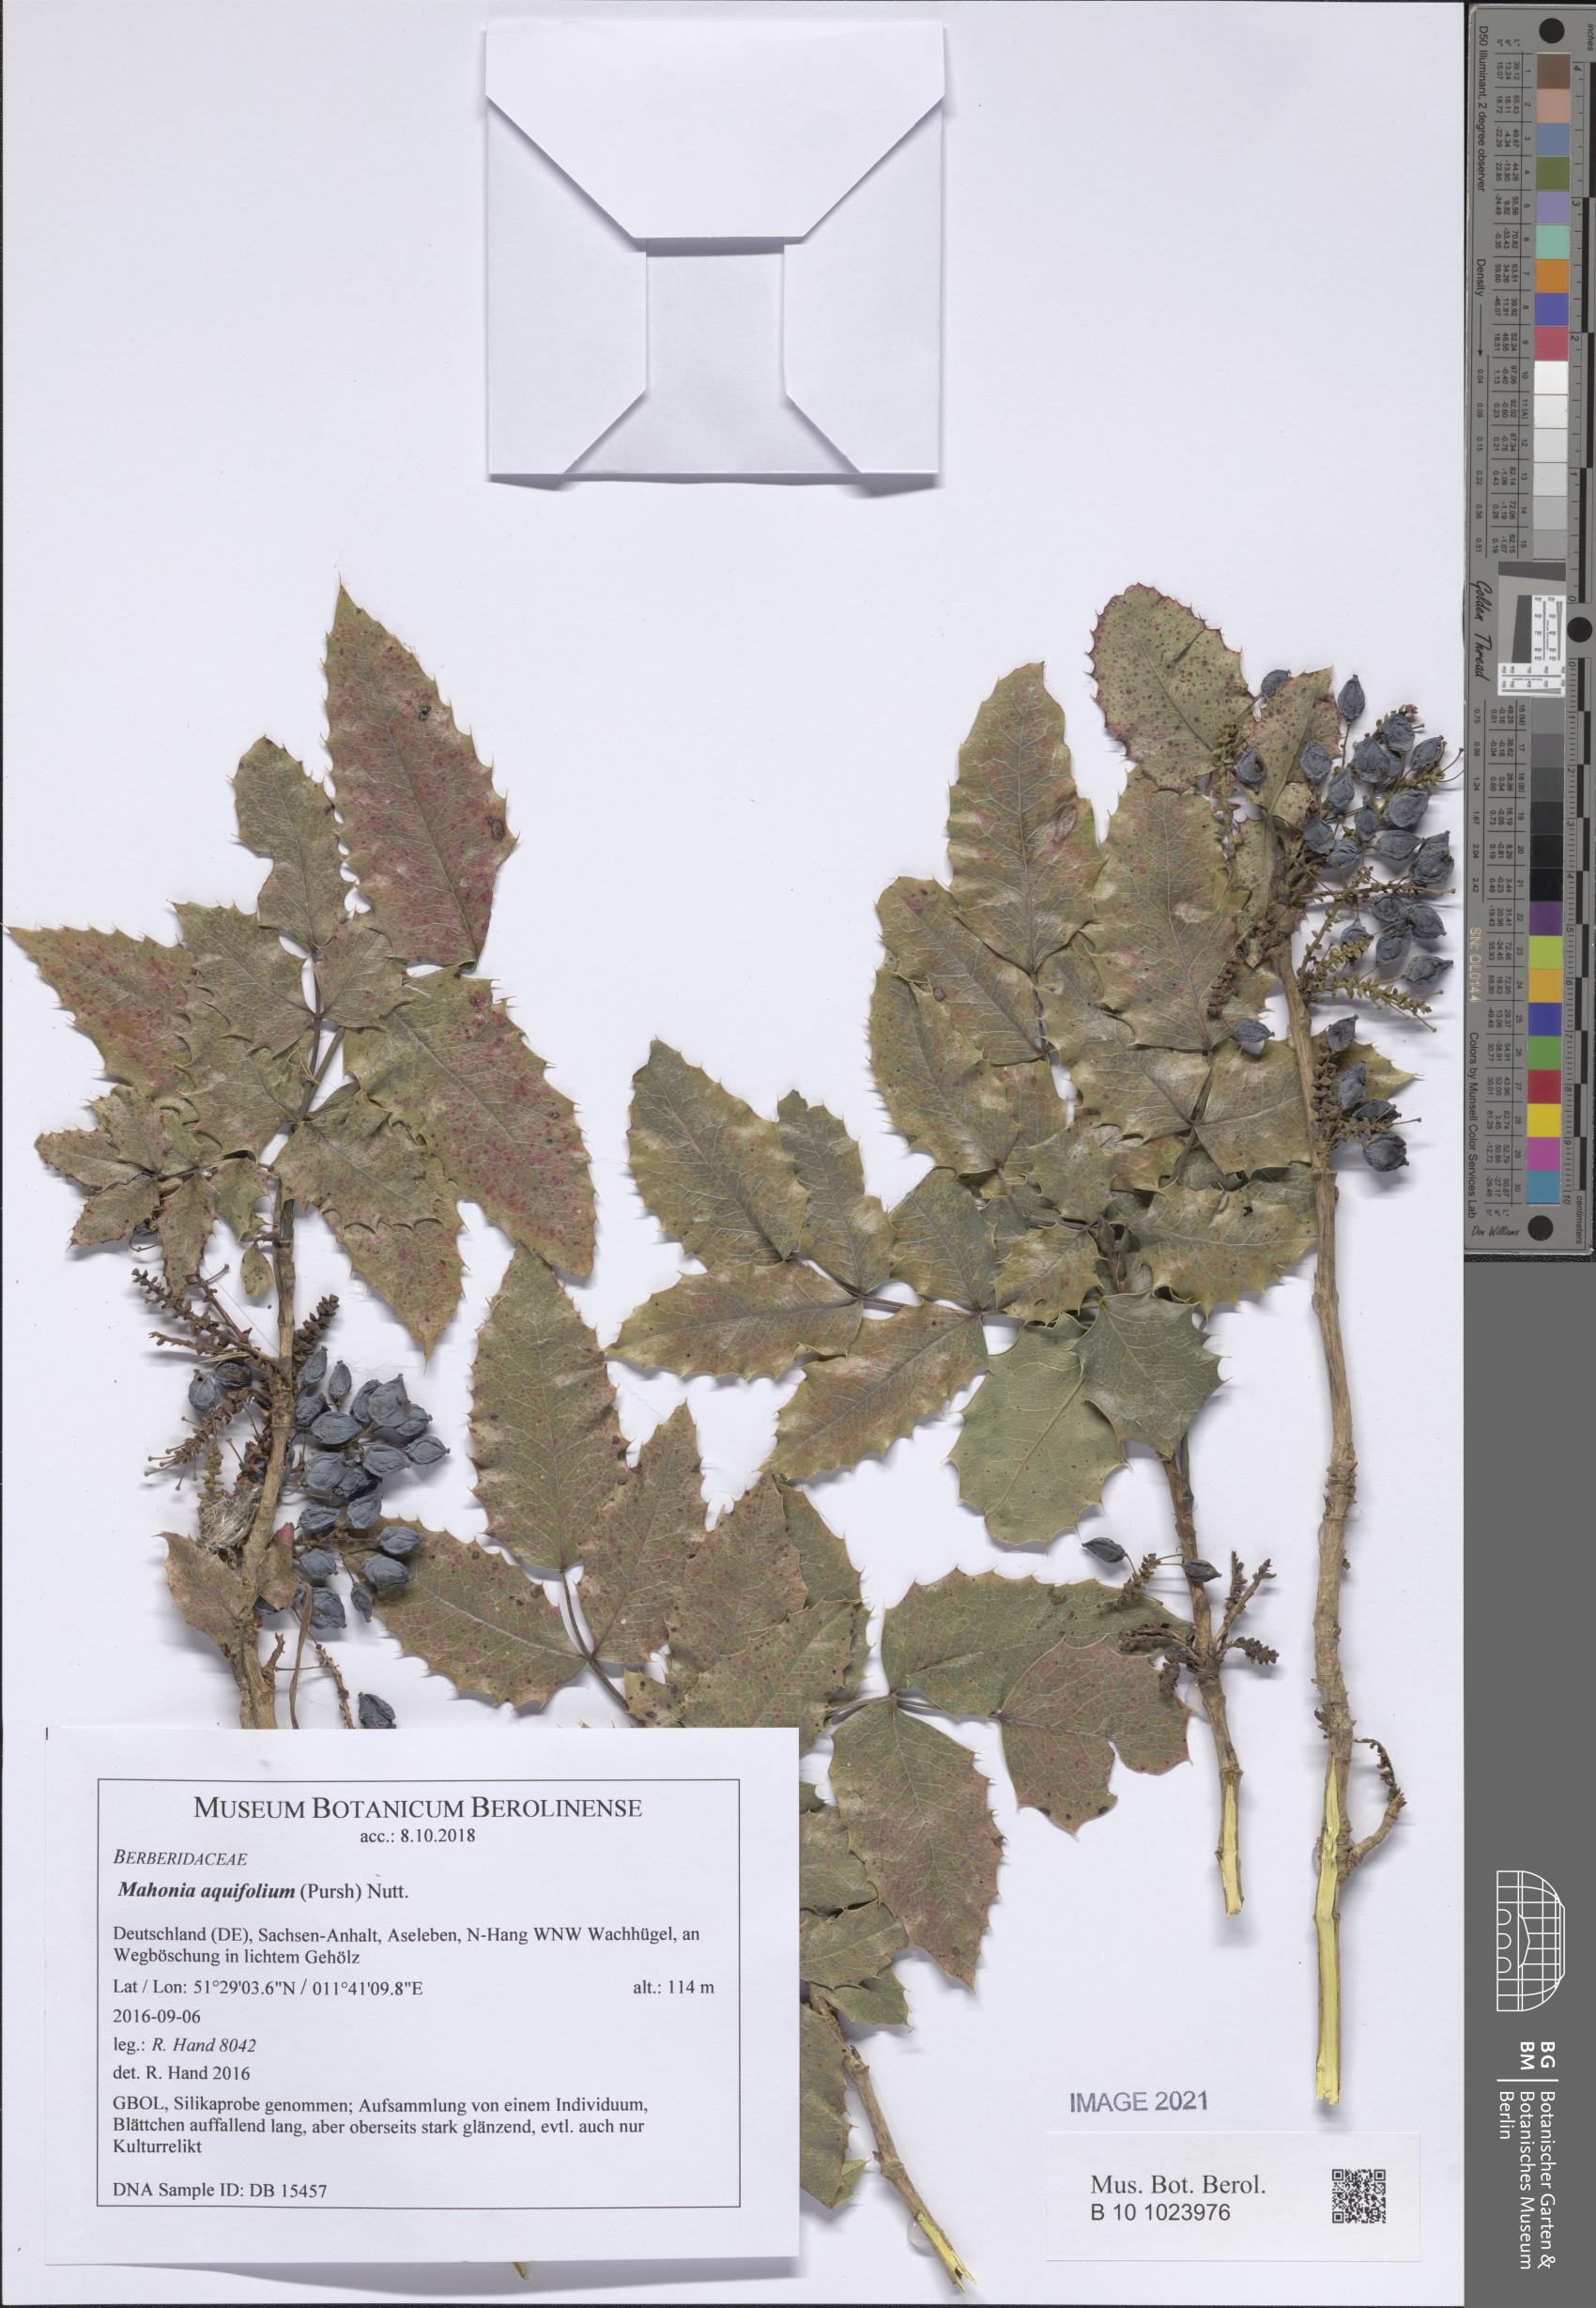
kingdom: Plantae
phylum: Tracheophyta
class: Magnoliopsida
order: Ranunculales
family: Berberidaceae
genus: Mahonia
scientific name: Mahonia aquifolium
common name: Oregon-grape
